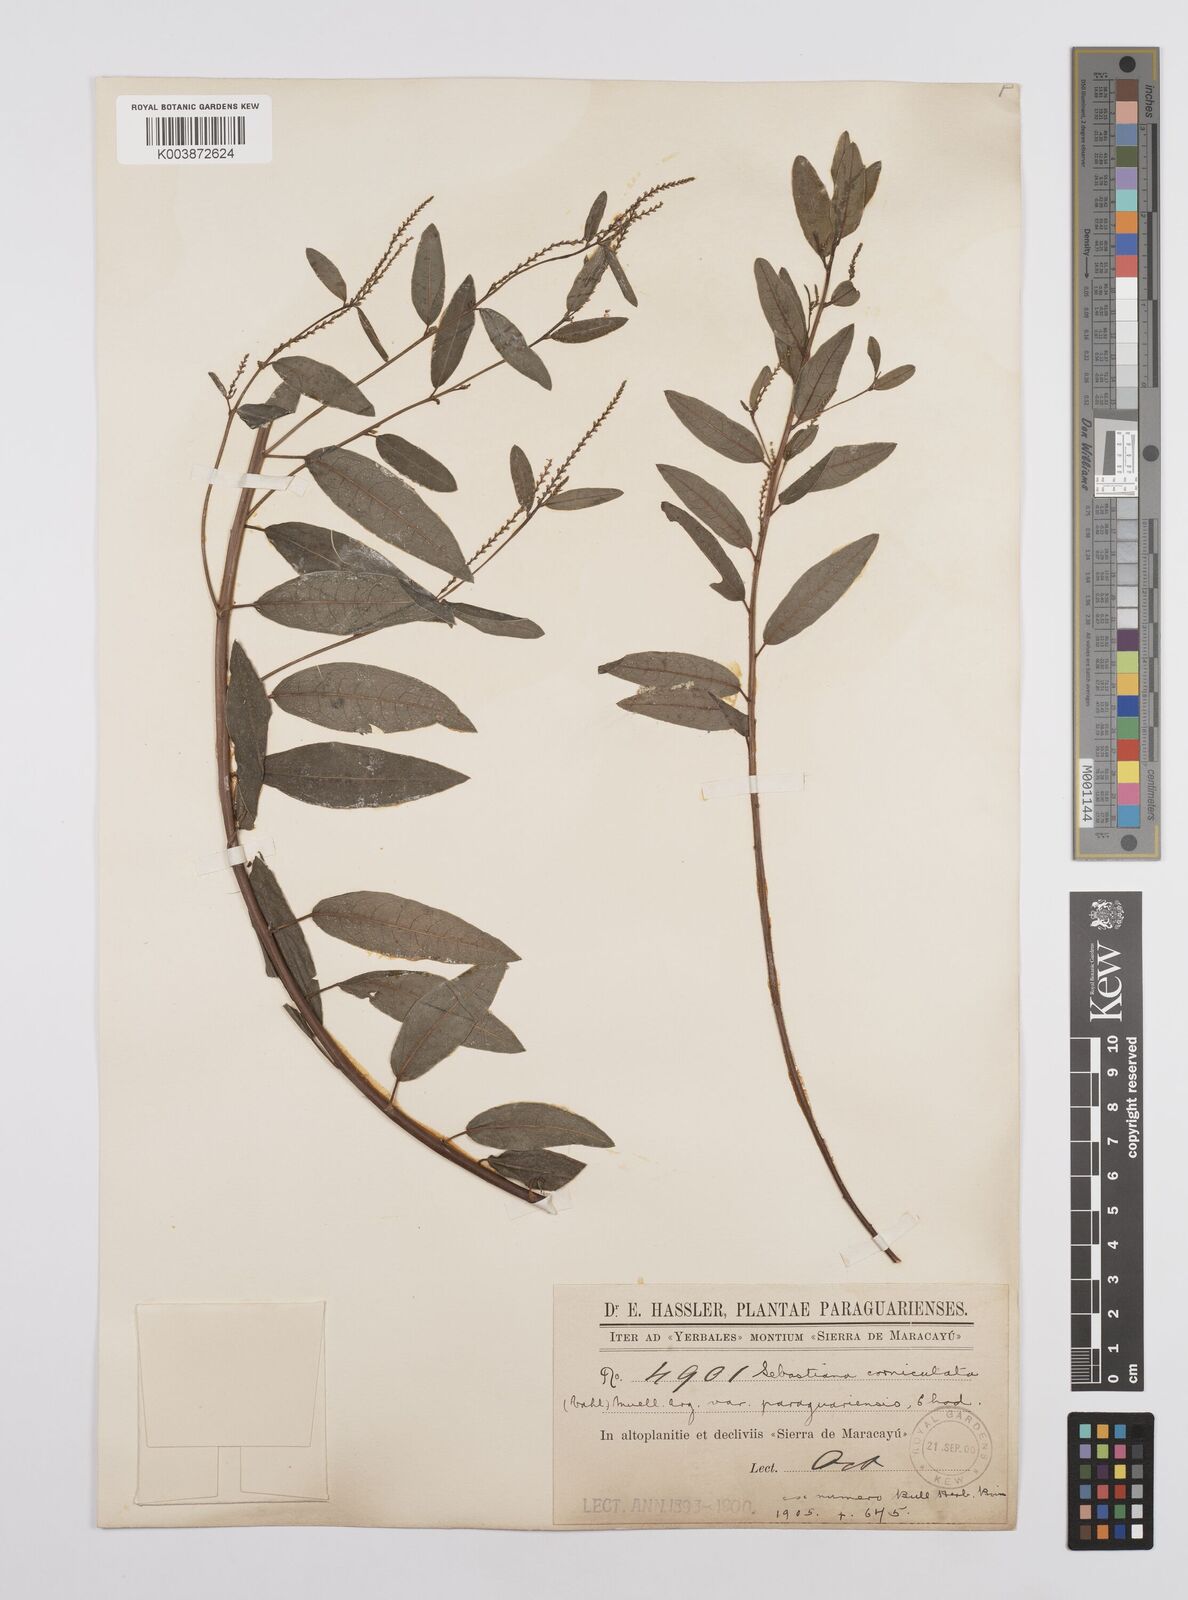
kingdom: Plantae
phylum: Tracheophyta
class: Magnoliopsida
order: Malpighiales
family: Euphorbiaceae
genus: Microstachys
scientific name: Microstachys hispida
